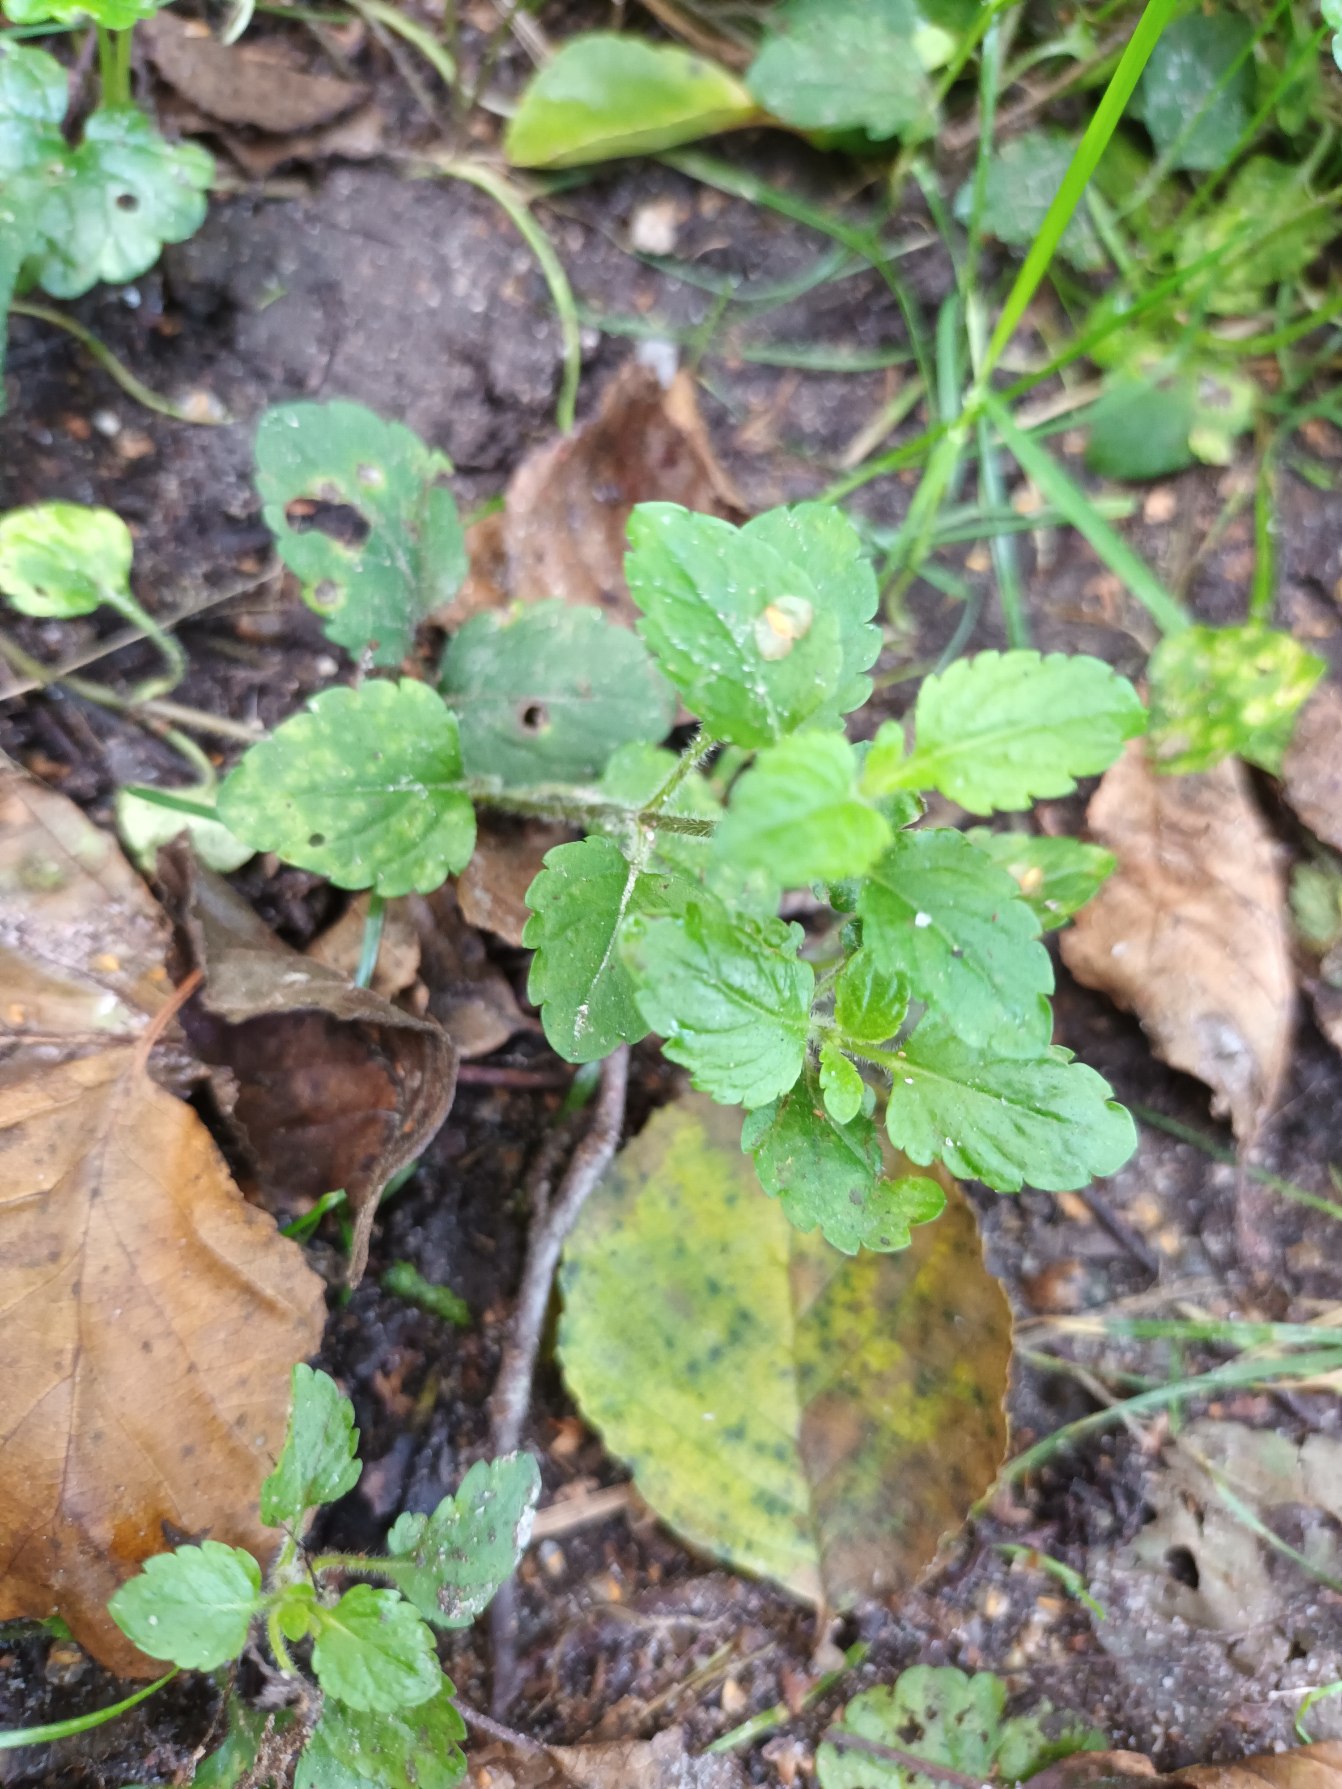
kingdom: Plantae
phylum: Tracheophyta
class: Magnoliopsida
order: Lamiales
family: Plantaginaceae
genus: Veronica
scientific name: Veronica montana
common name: Bjerg-ærenpris
